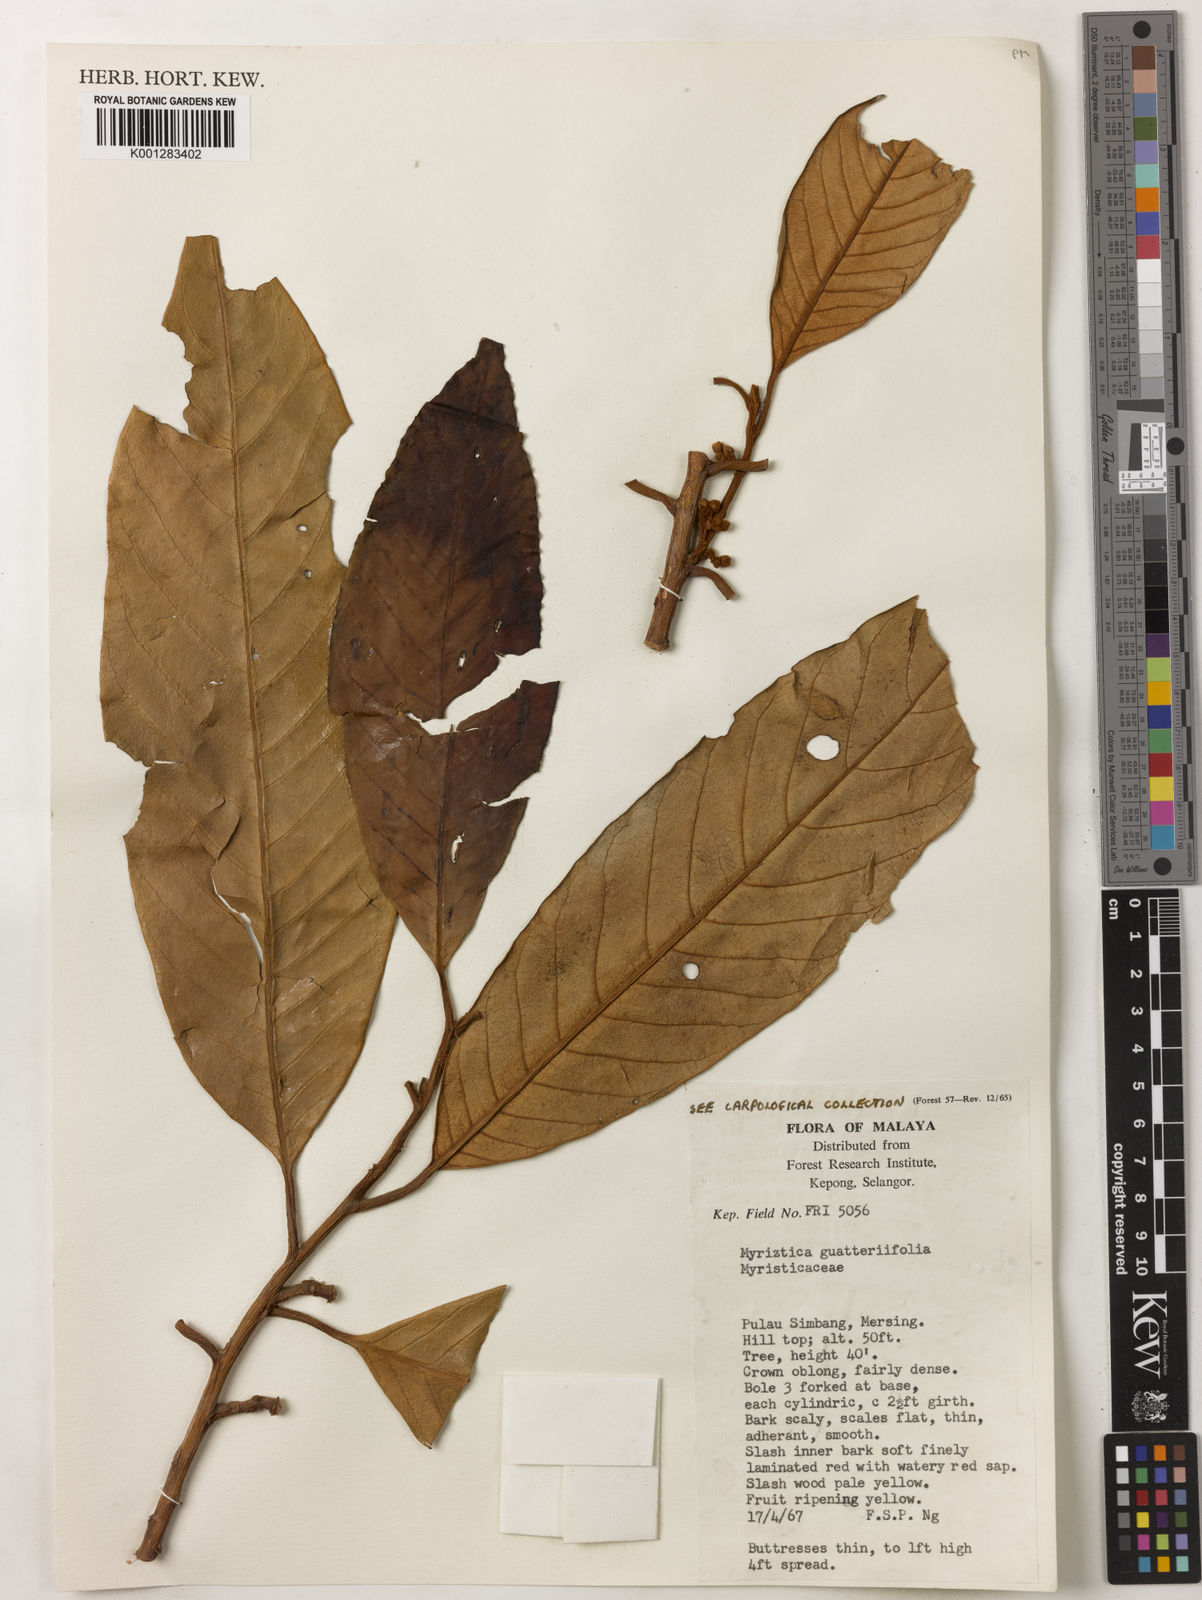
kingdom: Plantae
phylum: Tracheophyta
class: Magnoliopsida
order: Magnoliales
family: Myristicaceae
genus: Myristica
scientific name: Myristica
